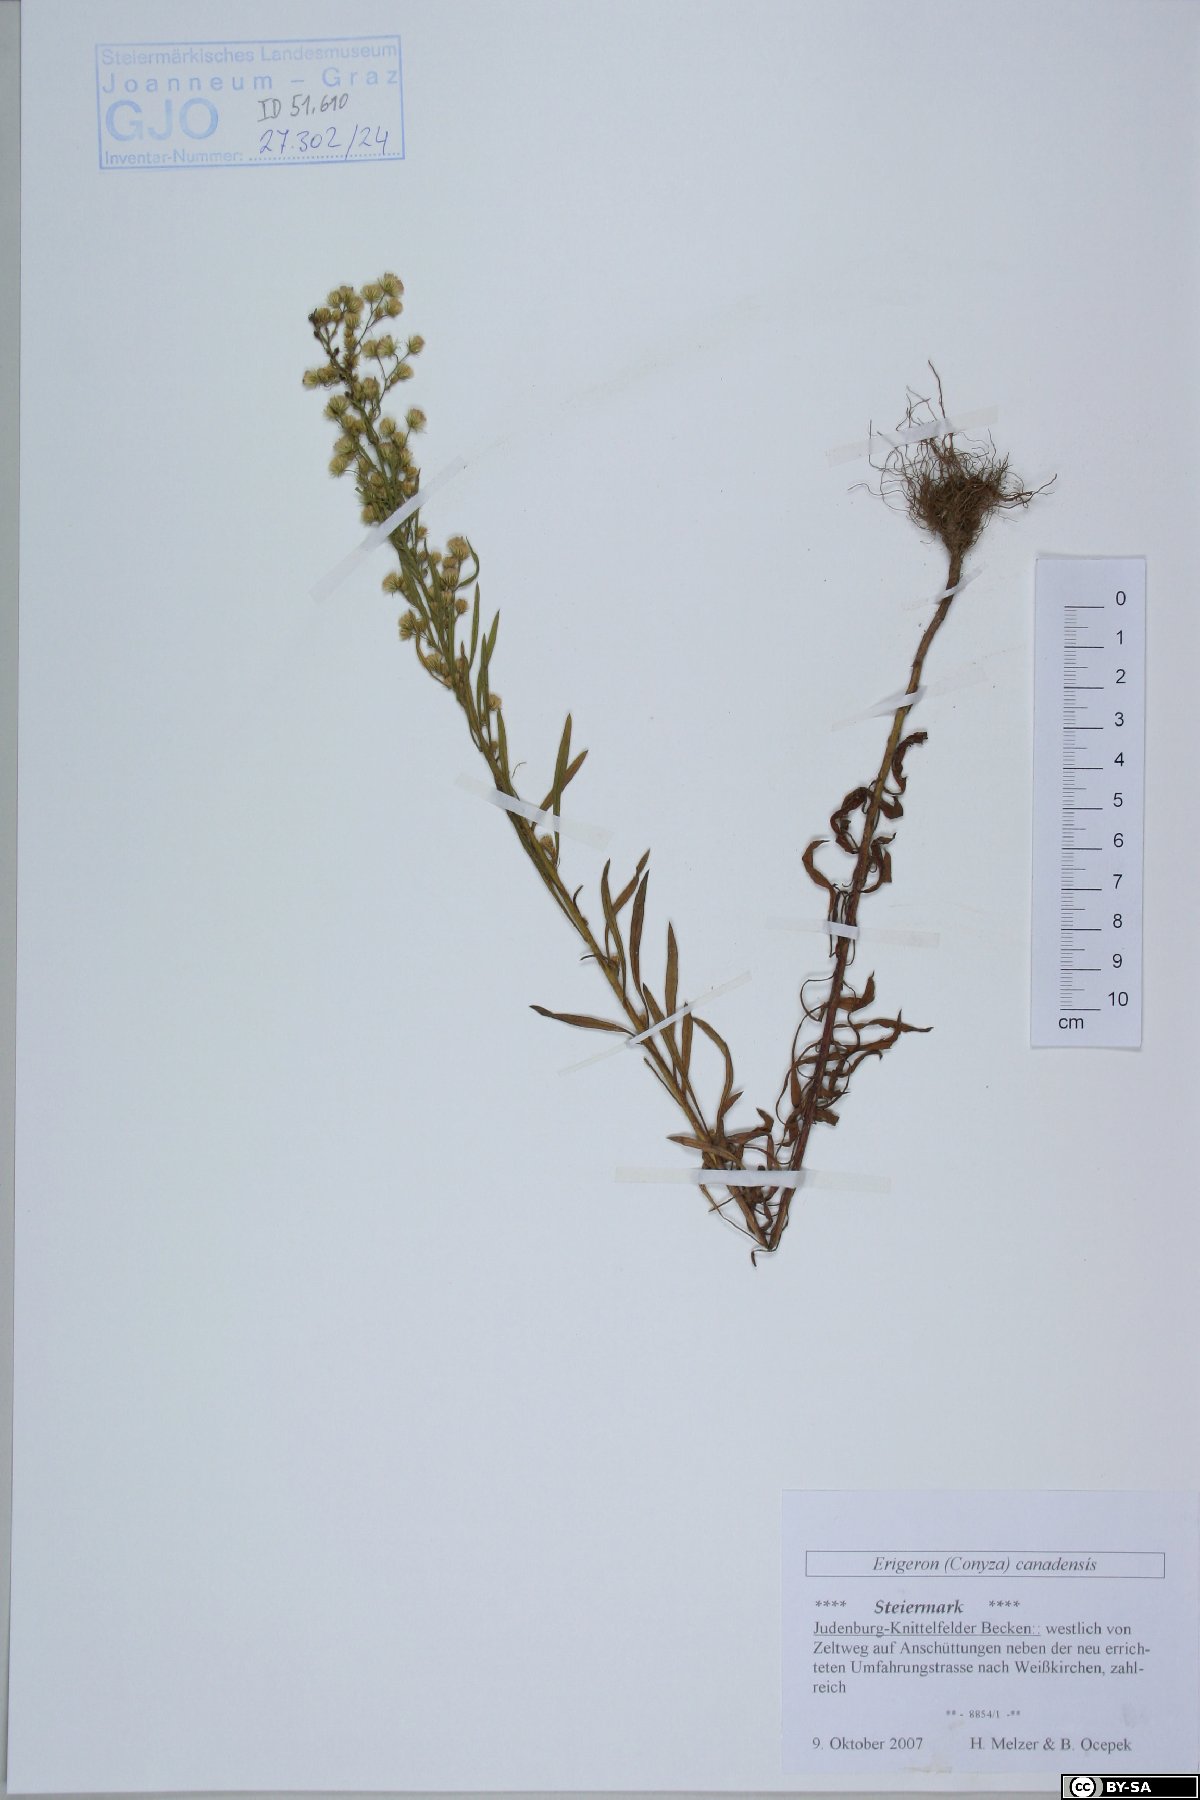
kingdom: Plantae
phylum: Tracheophyta
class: Magnoliopsida
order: Asterales
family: Asteraceae
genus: Erigeron
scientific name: Erigeron canadensis
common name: Canadian fleabane
